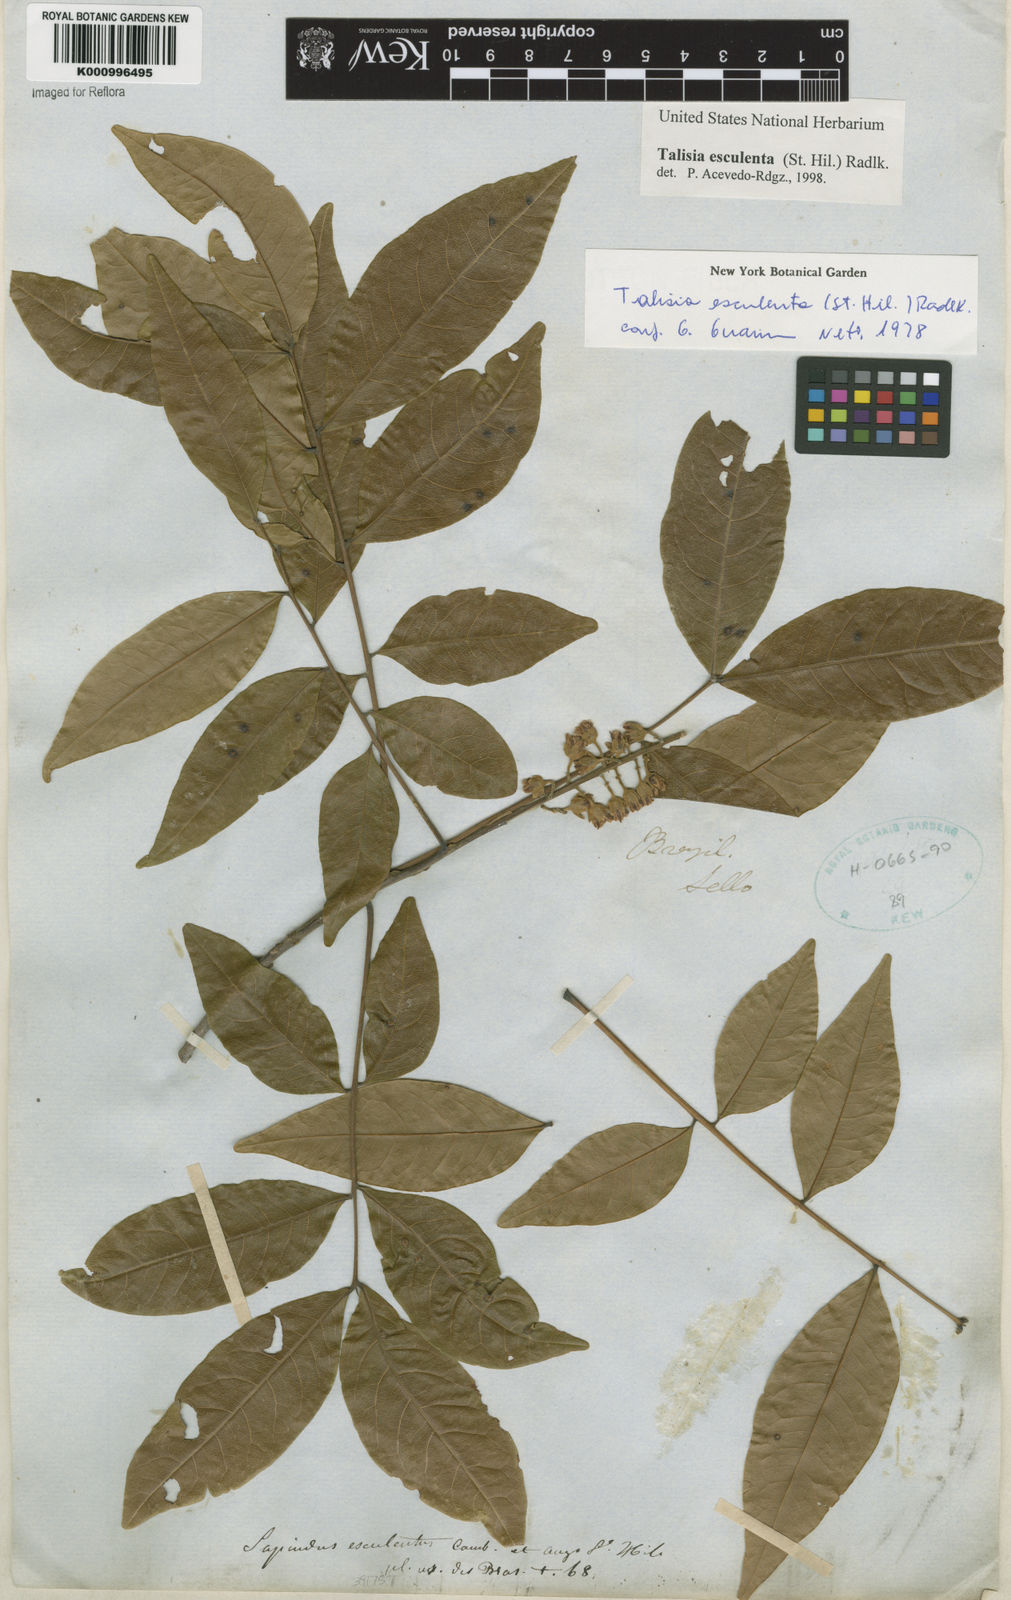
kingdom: Plantae
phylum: Tracheophyta
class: Magnoliopsida
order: Sapindales
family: Sapindaceae
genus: Talisia
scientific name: Talisia
